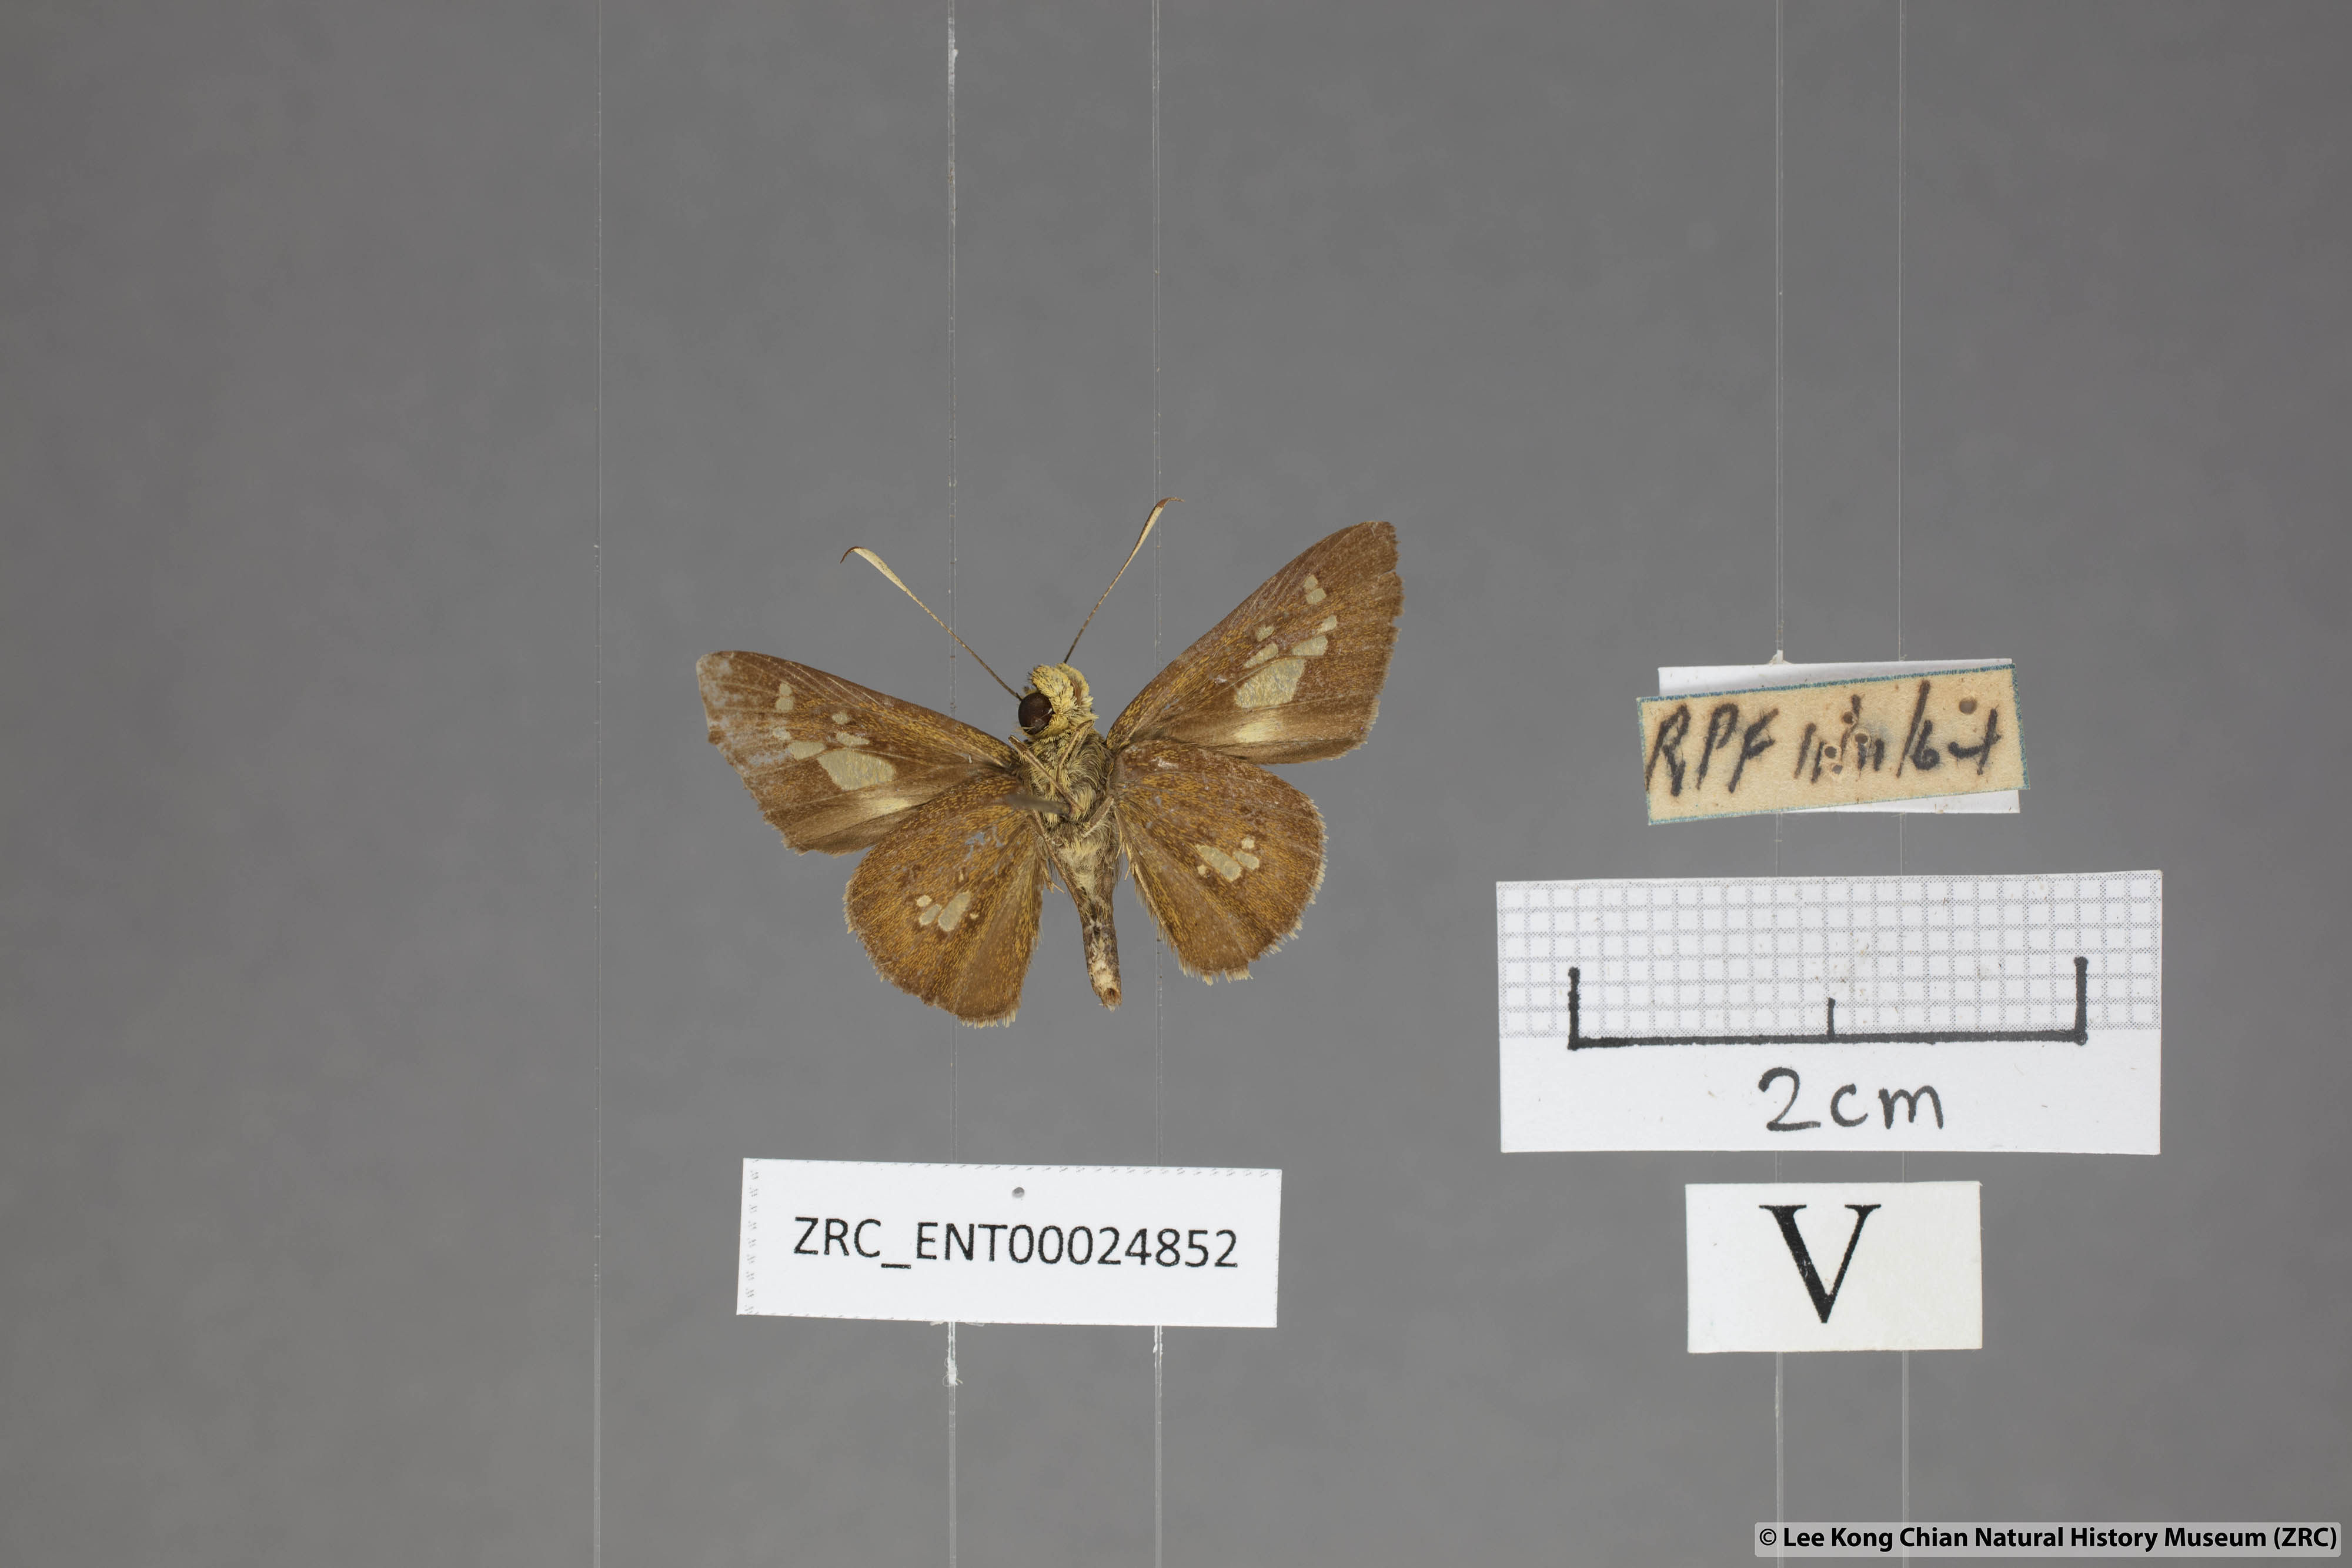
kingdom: Animalia
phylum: Arthropoda
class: Insecta
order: Lepidoptera
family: Hesperiidae
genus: Isma
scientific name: Isma bononoides
